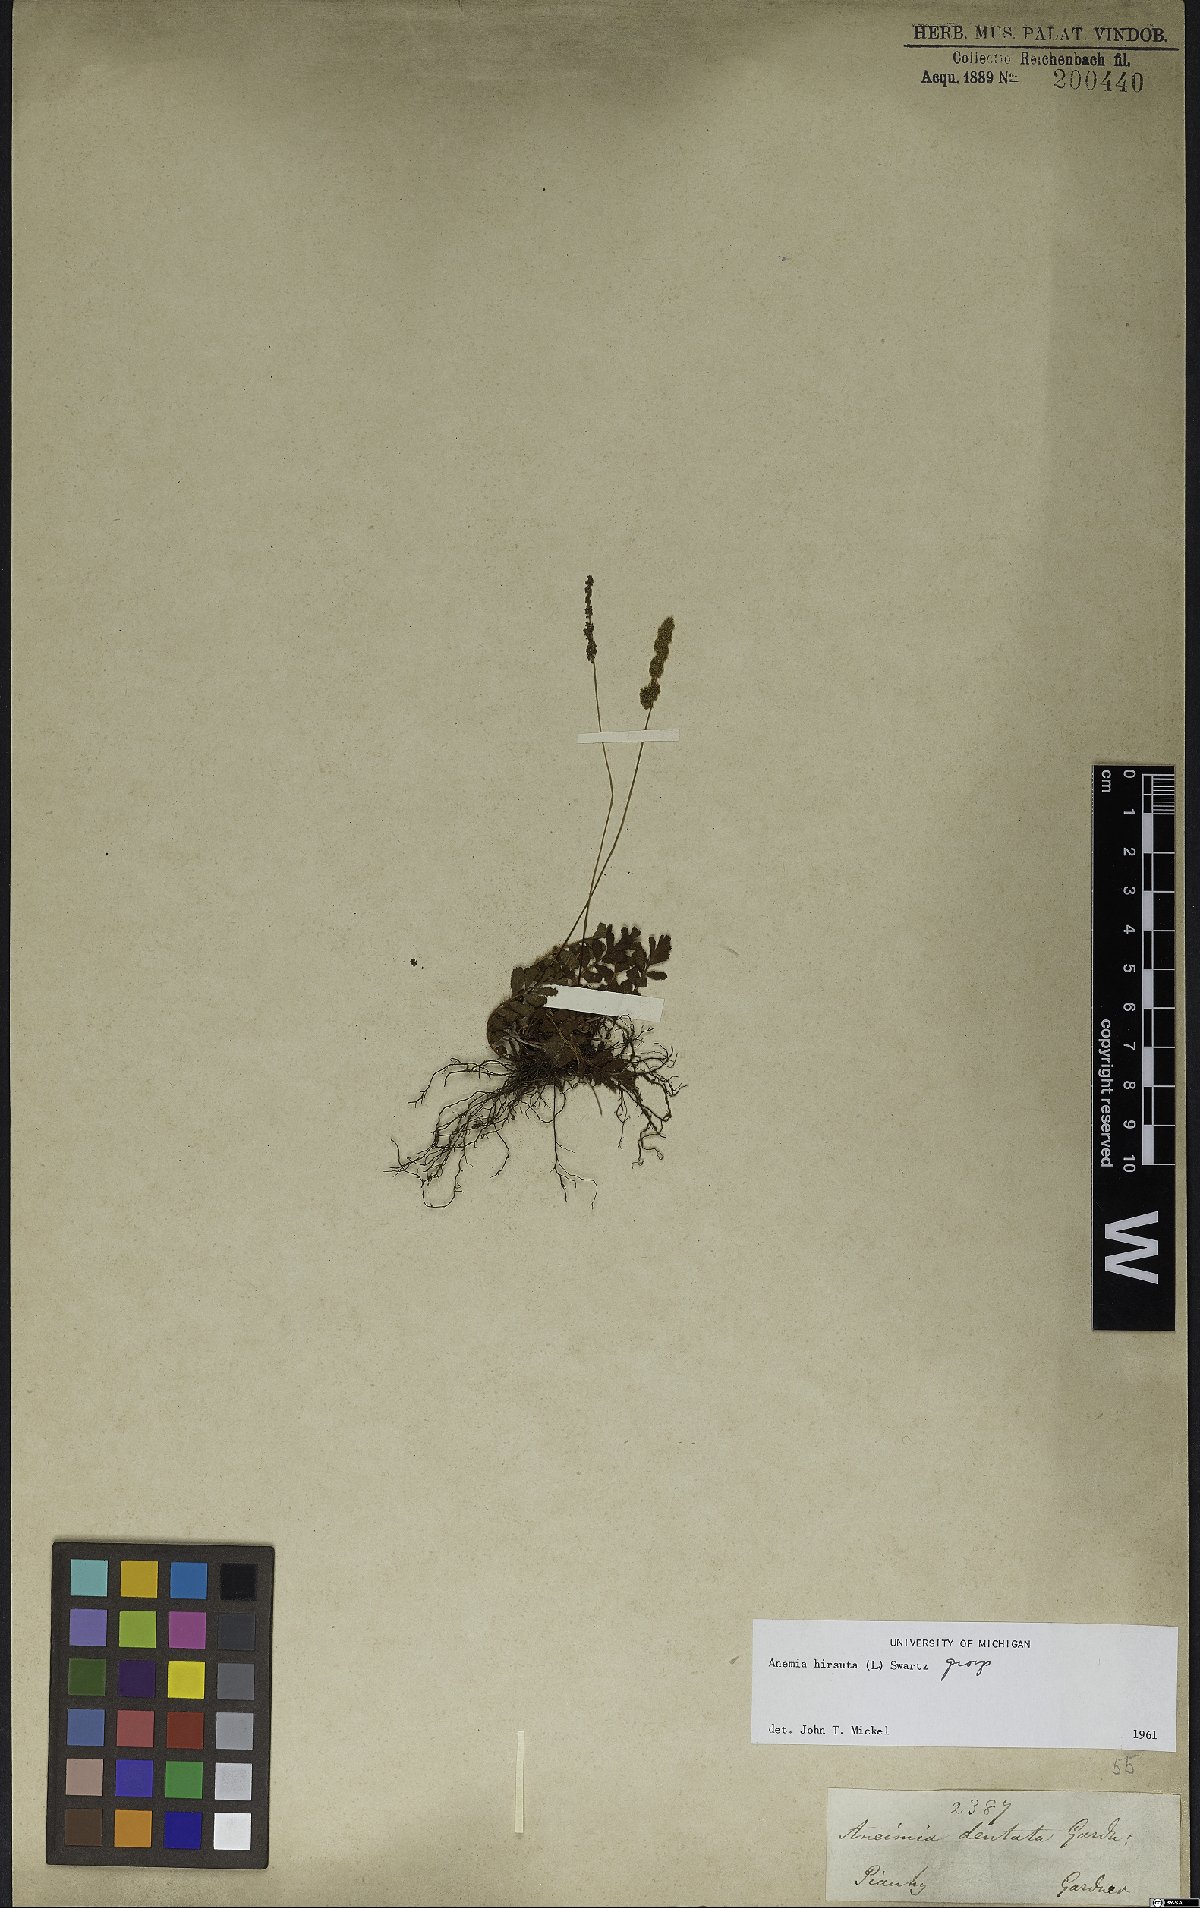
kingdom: Plantae
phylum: Tracheophyta
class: Polypodiopsida
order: Schizaeales
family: Anemiaceae
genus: Anemia
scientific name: Anemia hirsuta
